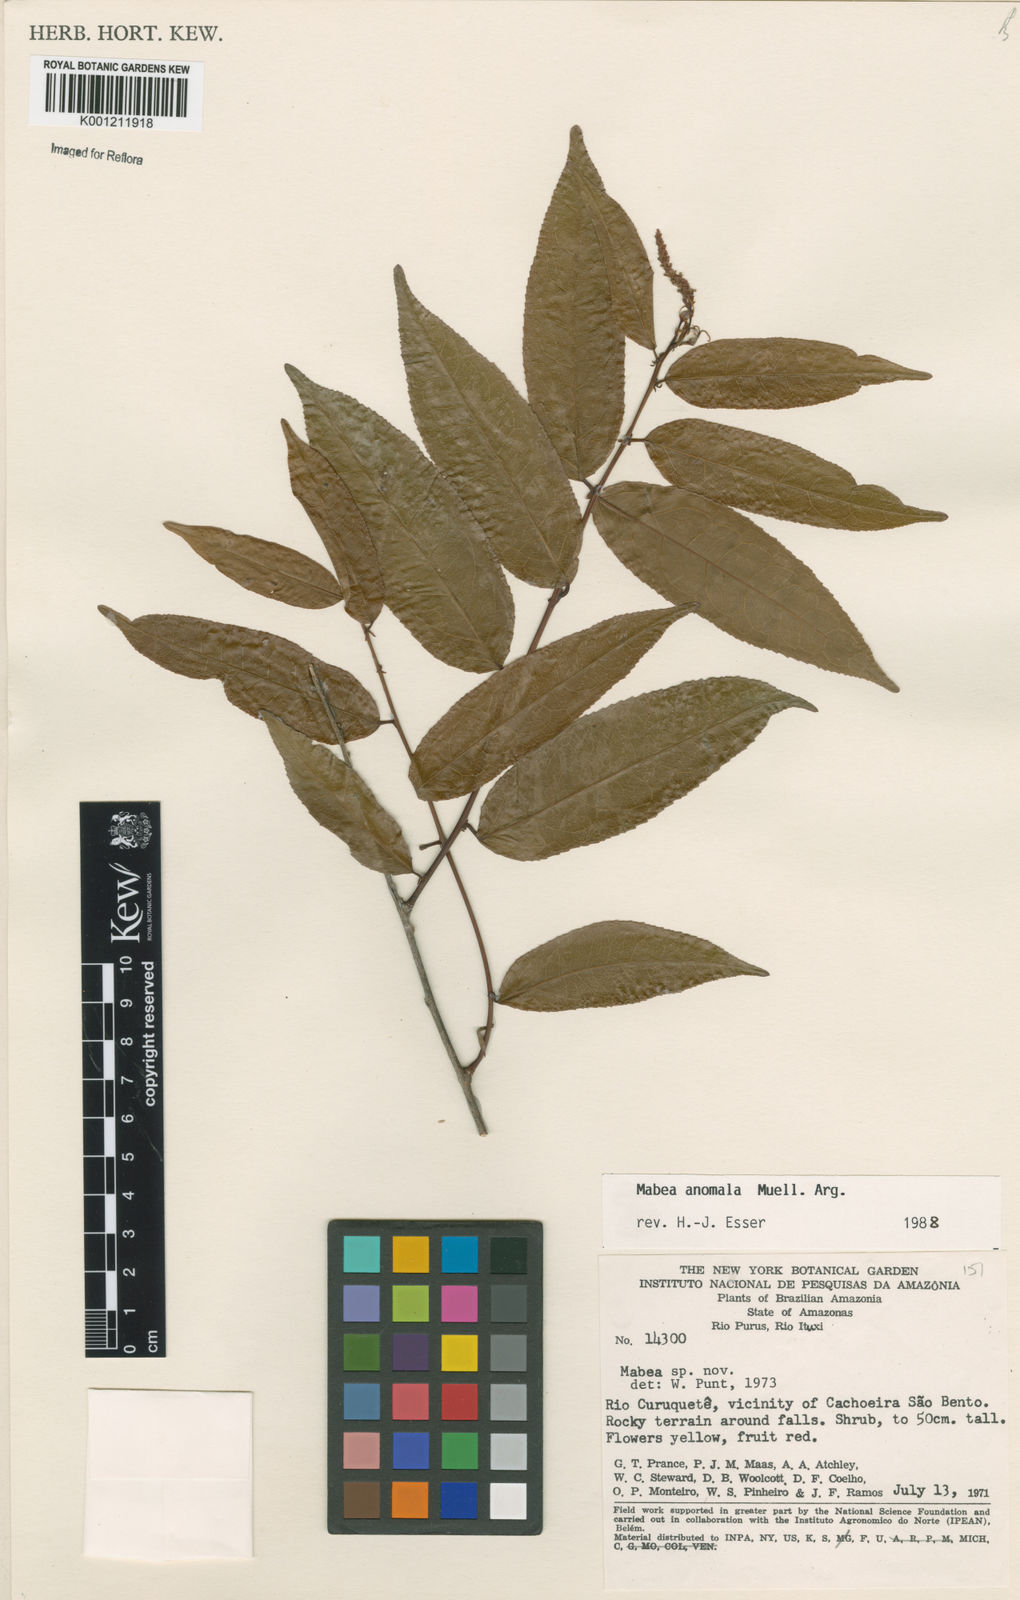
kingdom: Plantae
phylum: Tracheophyta
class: Magnoliopsida
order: Malpighiales
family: Euphorbiaceae
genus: Mabea
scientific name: Mabea
